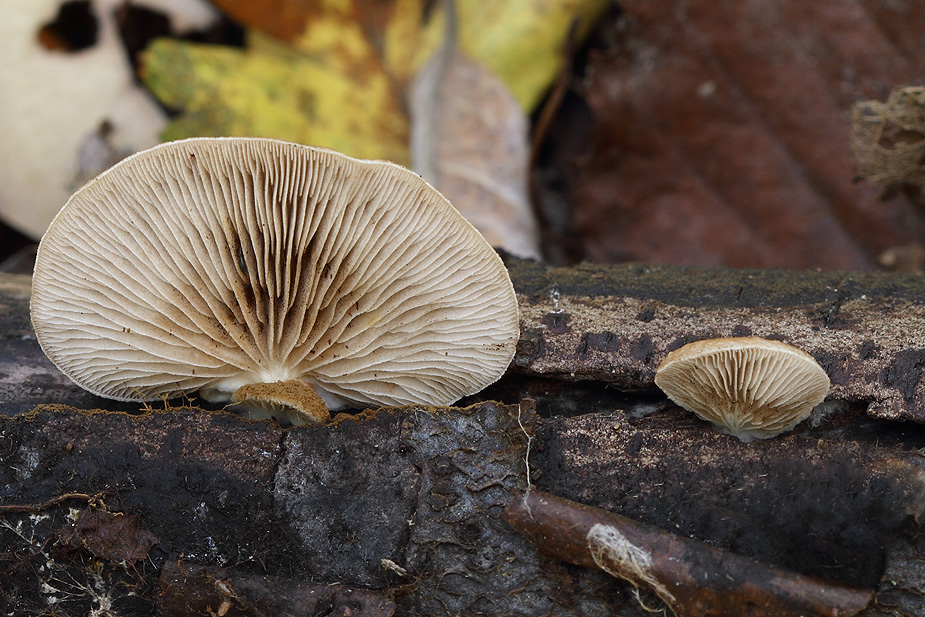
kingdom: Fungi
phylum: Basidiomycota
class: Agaricomycetes
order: Agaricales
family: Strophariaceae
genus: Deconica
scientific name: Deconica horizontalis
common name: ved-stråhat
